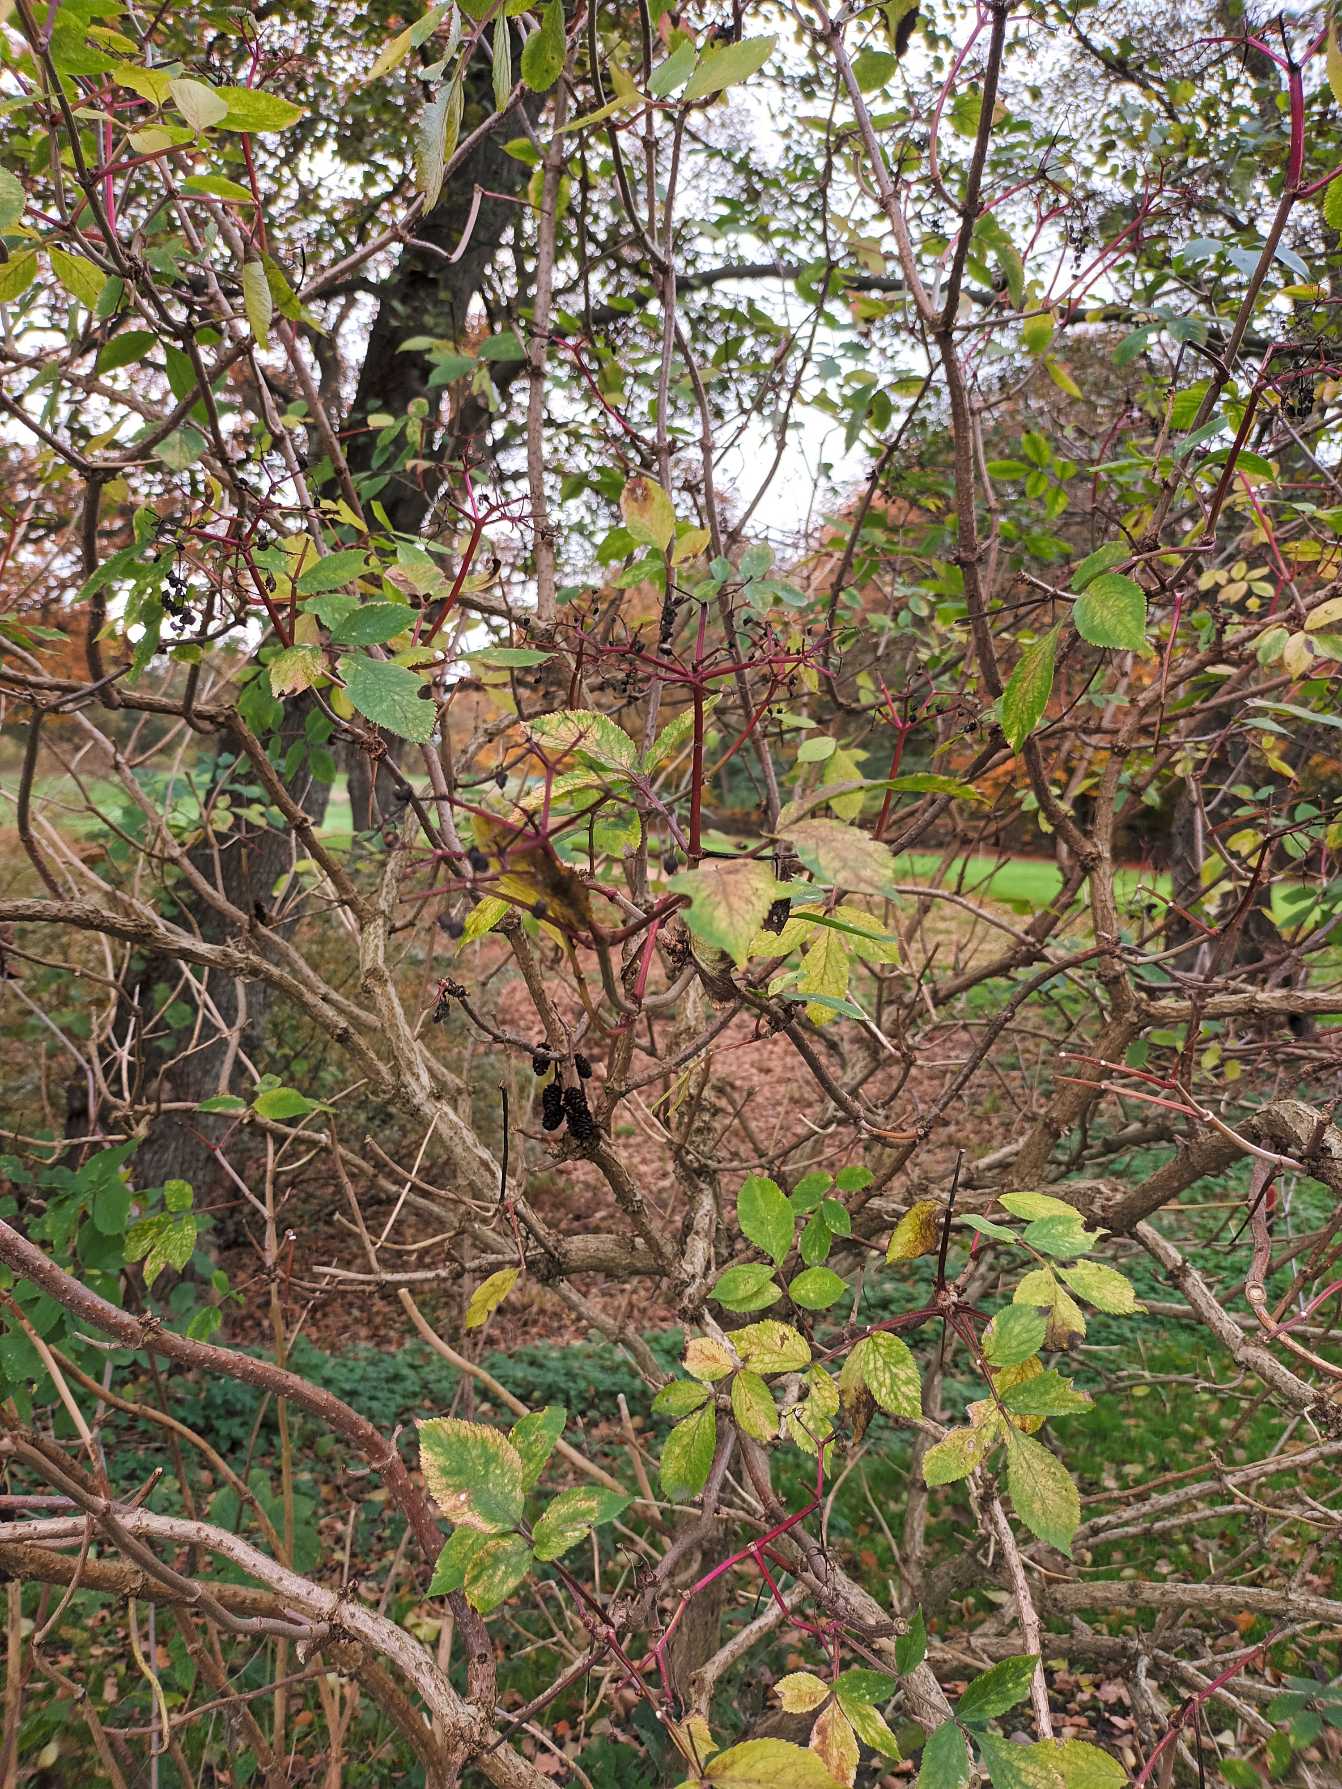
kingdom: Plantae
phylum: Tracheophyta
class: Magnoliopsida
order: Dipsacales
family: Viburnaceae
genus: Sambucus
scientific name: Sambucus nigra
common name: Almindelig hyld
